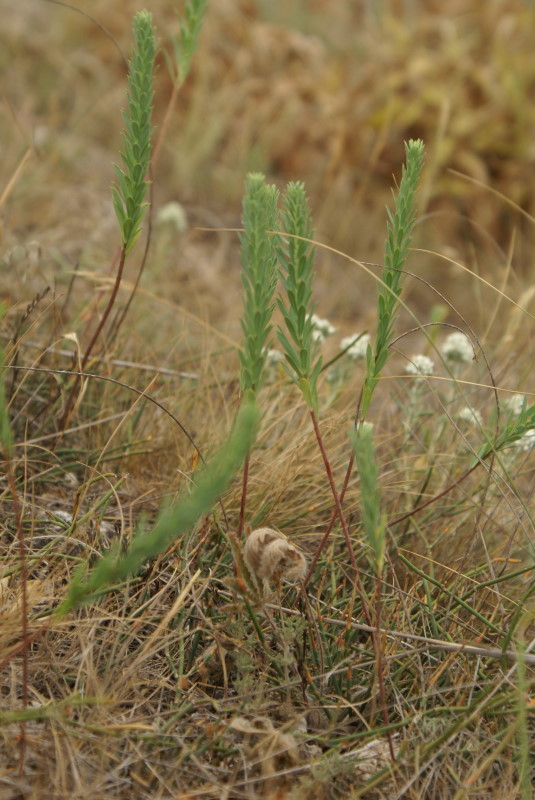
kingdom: Plantae
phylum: Tracheophyta
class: Magnoliopsida
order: Malpighiales
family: Euphorbiaceae
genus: Euphorbia
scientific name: Euphorbia
